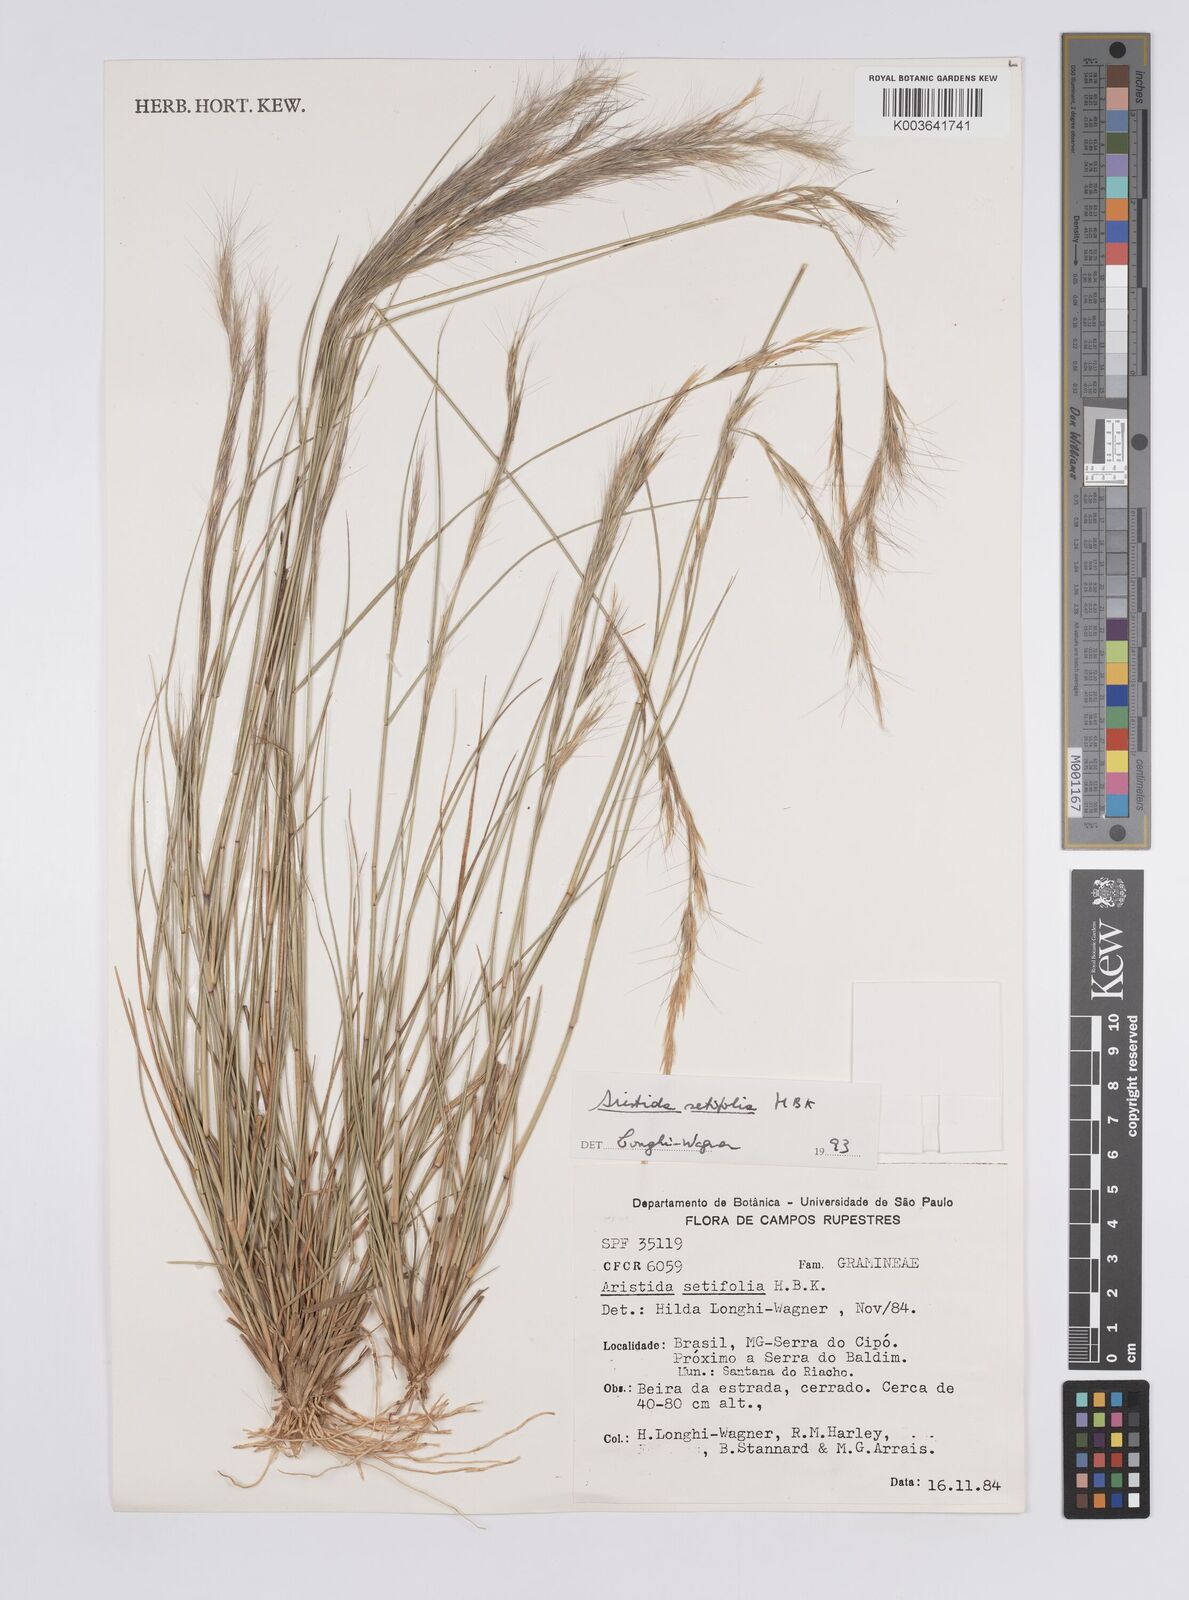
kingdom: Plantae
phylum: Tracheophyta
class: Liliopsida
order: Poales
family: Poaceae
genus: Aristida
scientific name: Aristida setifolia
